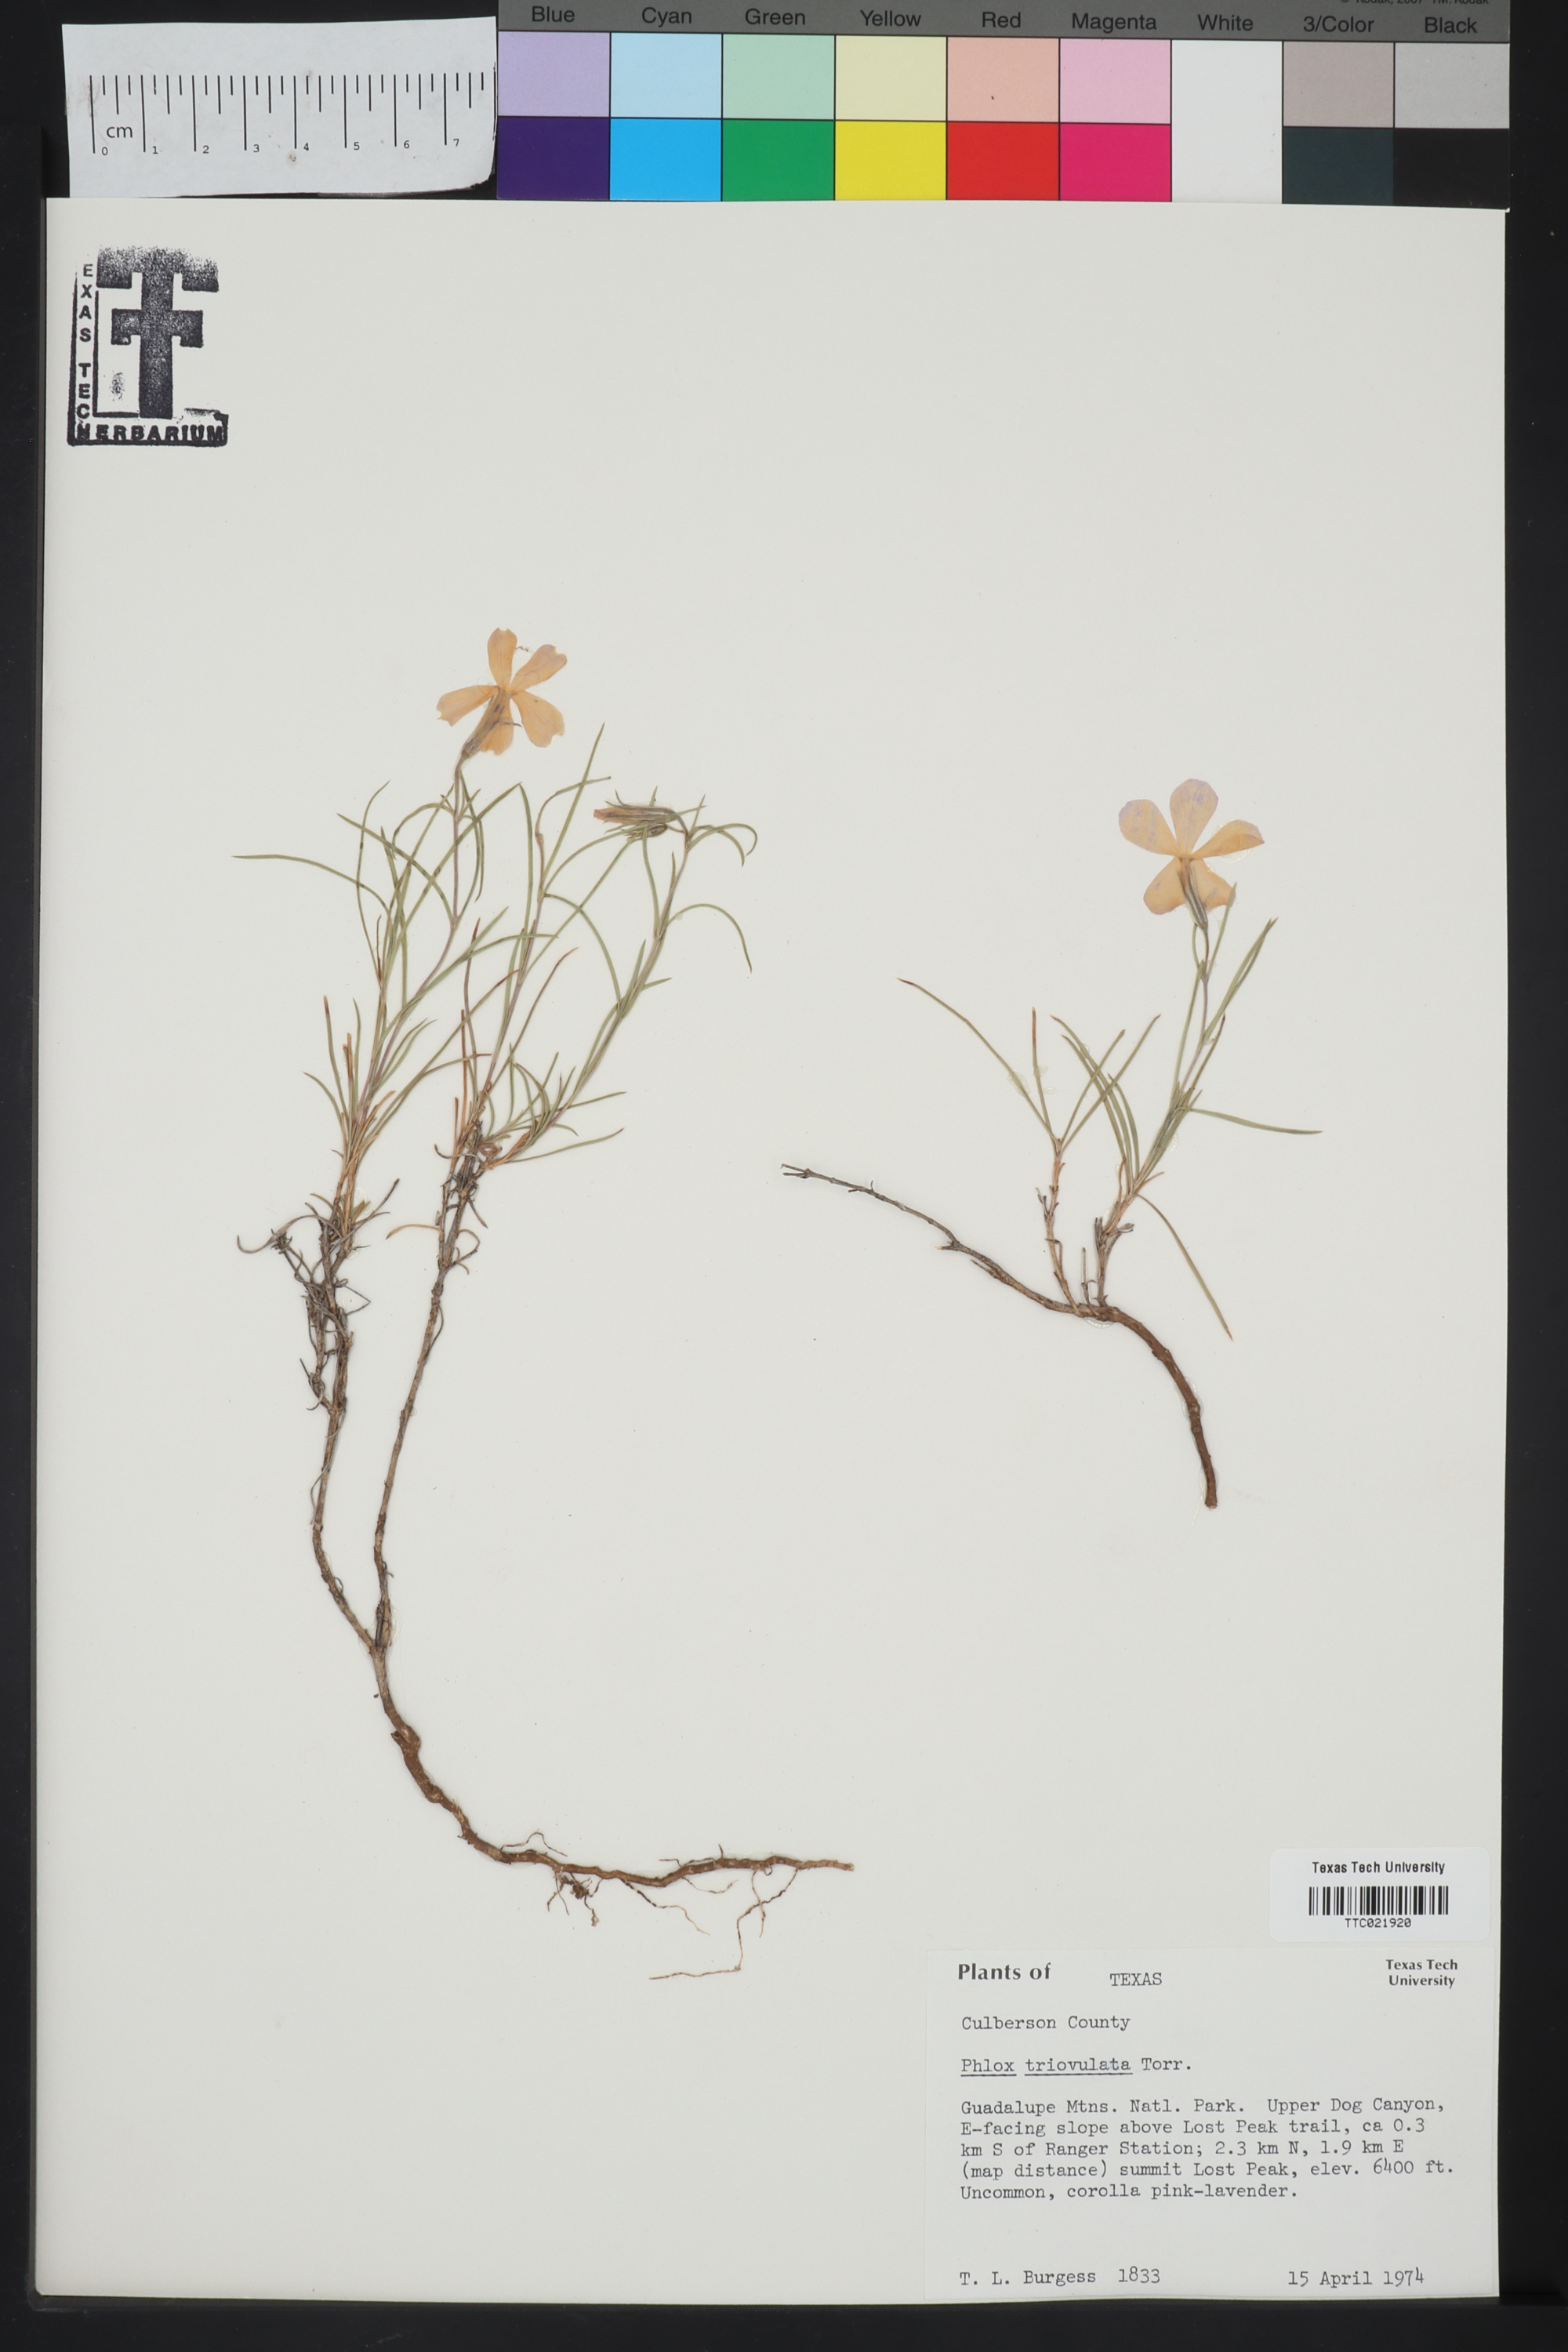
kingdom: Plantae
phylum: Tracheophyta
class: Magnoliopsida
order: Ericales
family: Polemoniaceae
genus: Phlox
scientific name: Phlox triovulata
